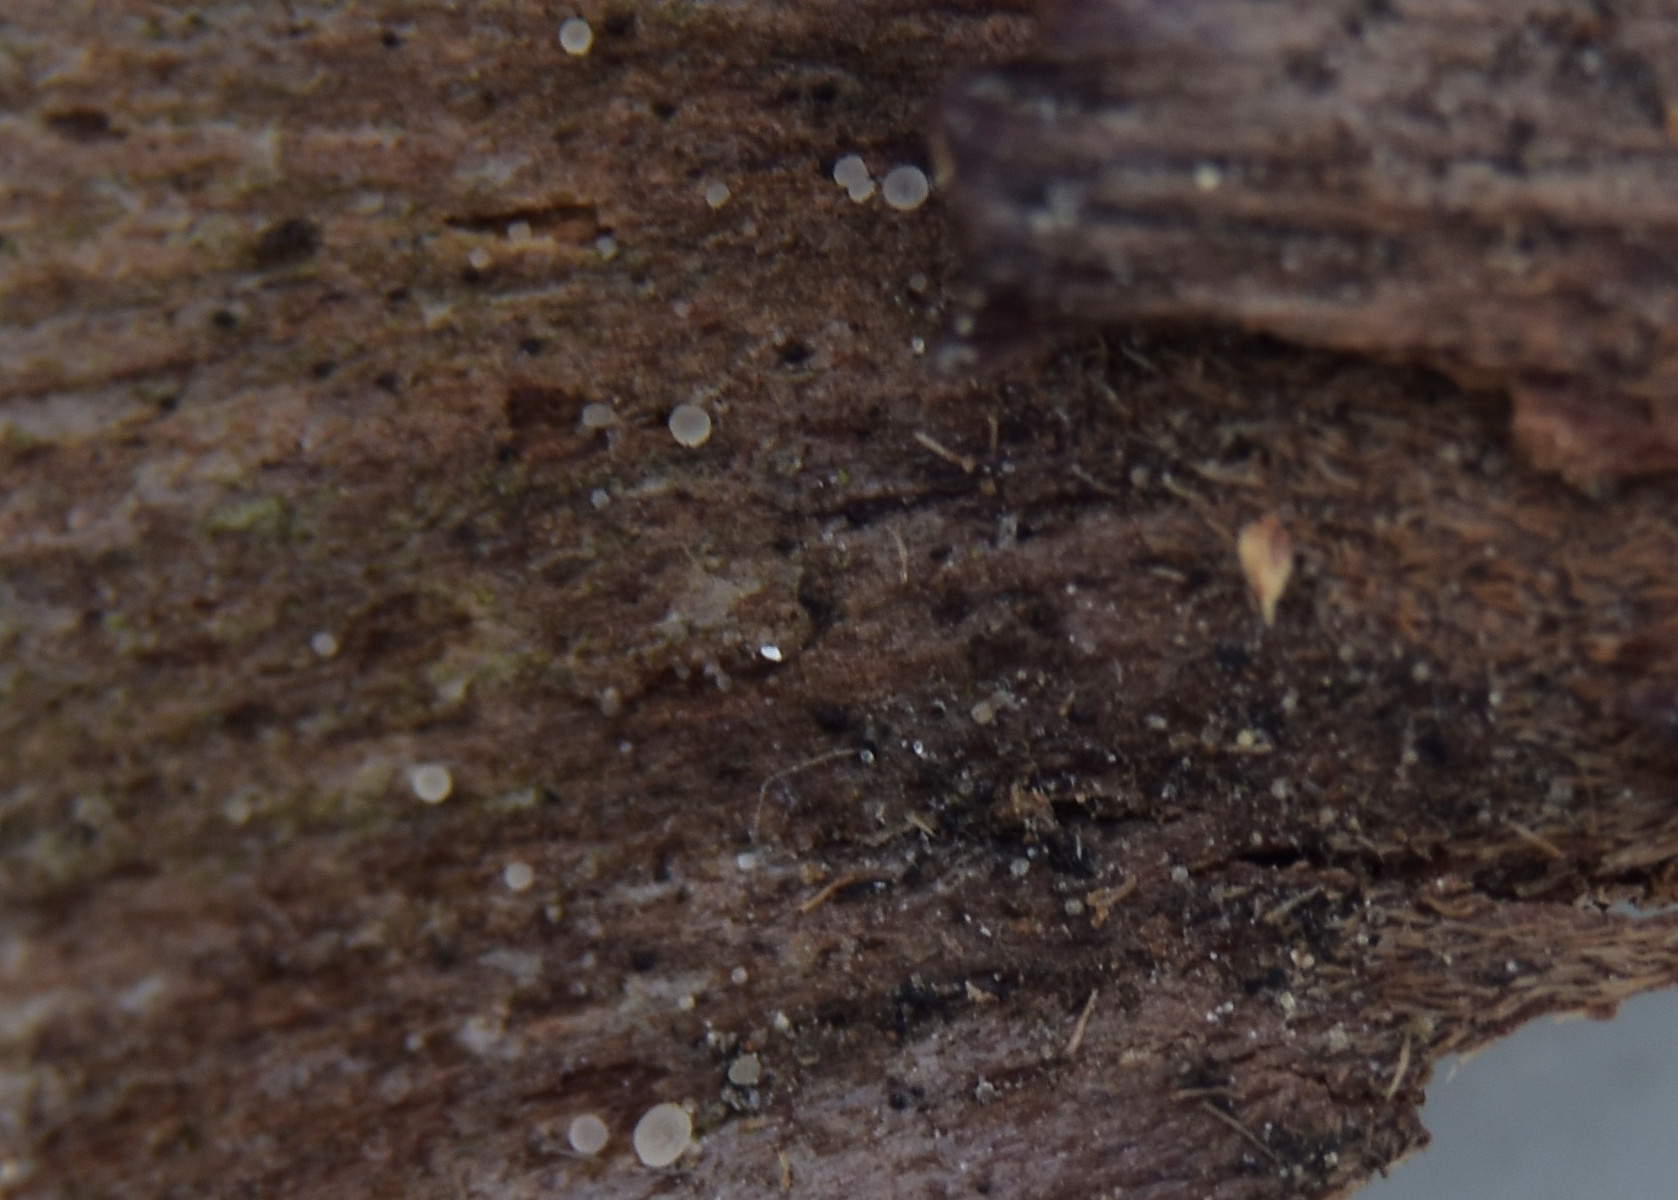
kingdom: Fungi
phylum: Ascomycota
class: Leotiomycetes
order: Helotiales
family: Hyaloscyphaceae
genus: Hyaloscypha
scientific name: Hyaloscypha minuta
